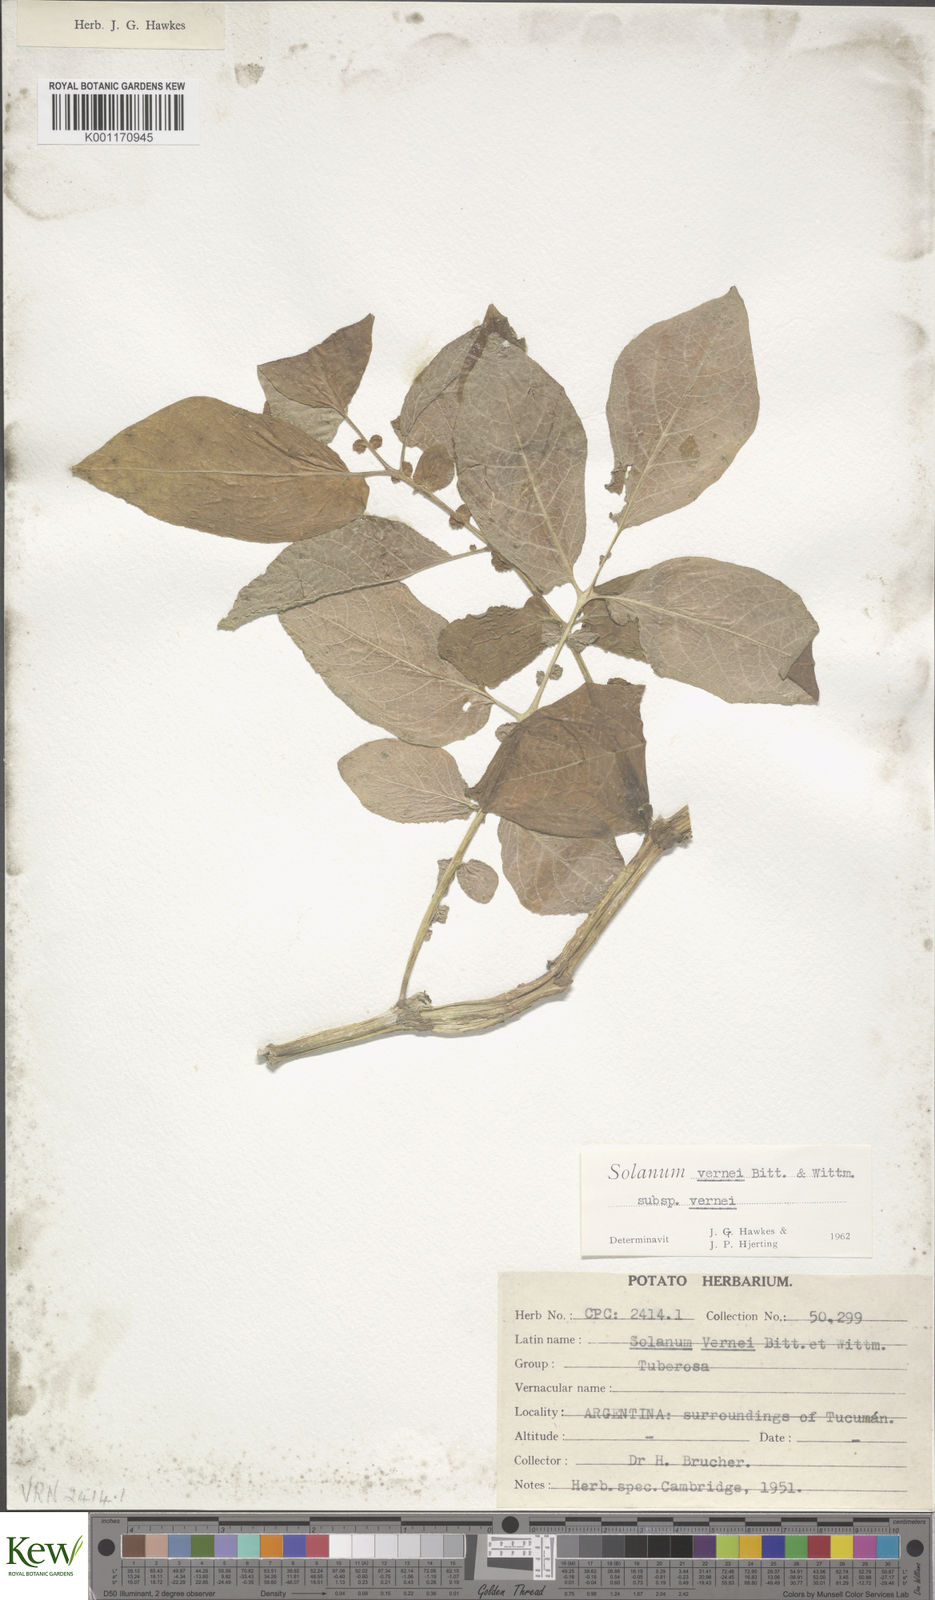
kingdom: Plantae
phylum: Tracheophyta
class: Magnoliopsida
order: Solanales
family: Solanaceae
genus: Solanum
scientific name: Solanum vernei
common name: Purple potato
